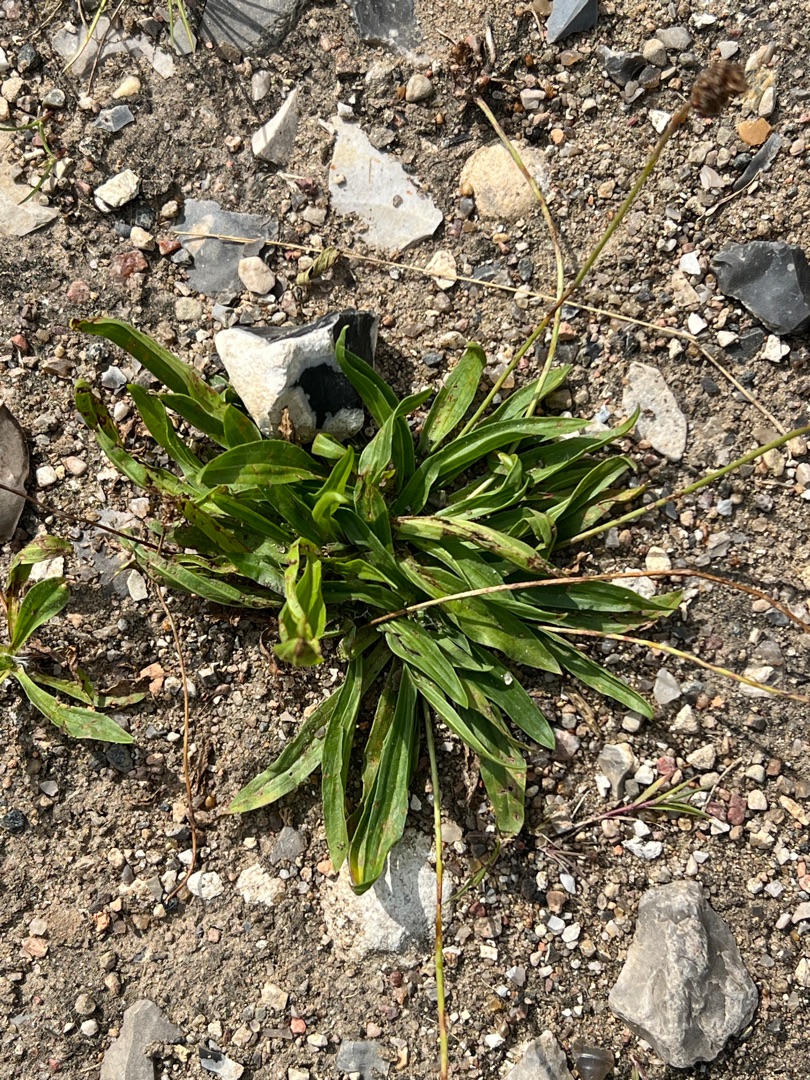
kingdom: Plantae
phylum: Tracheophyta
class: Magnoliopsida
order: Lamiales
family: Plantaginaceae
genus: Plantago
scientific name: Plantago lanceolata
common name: Lancet-vejbred
